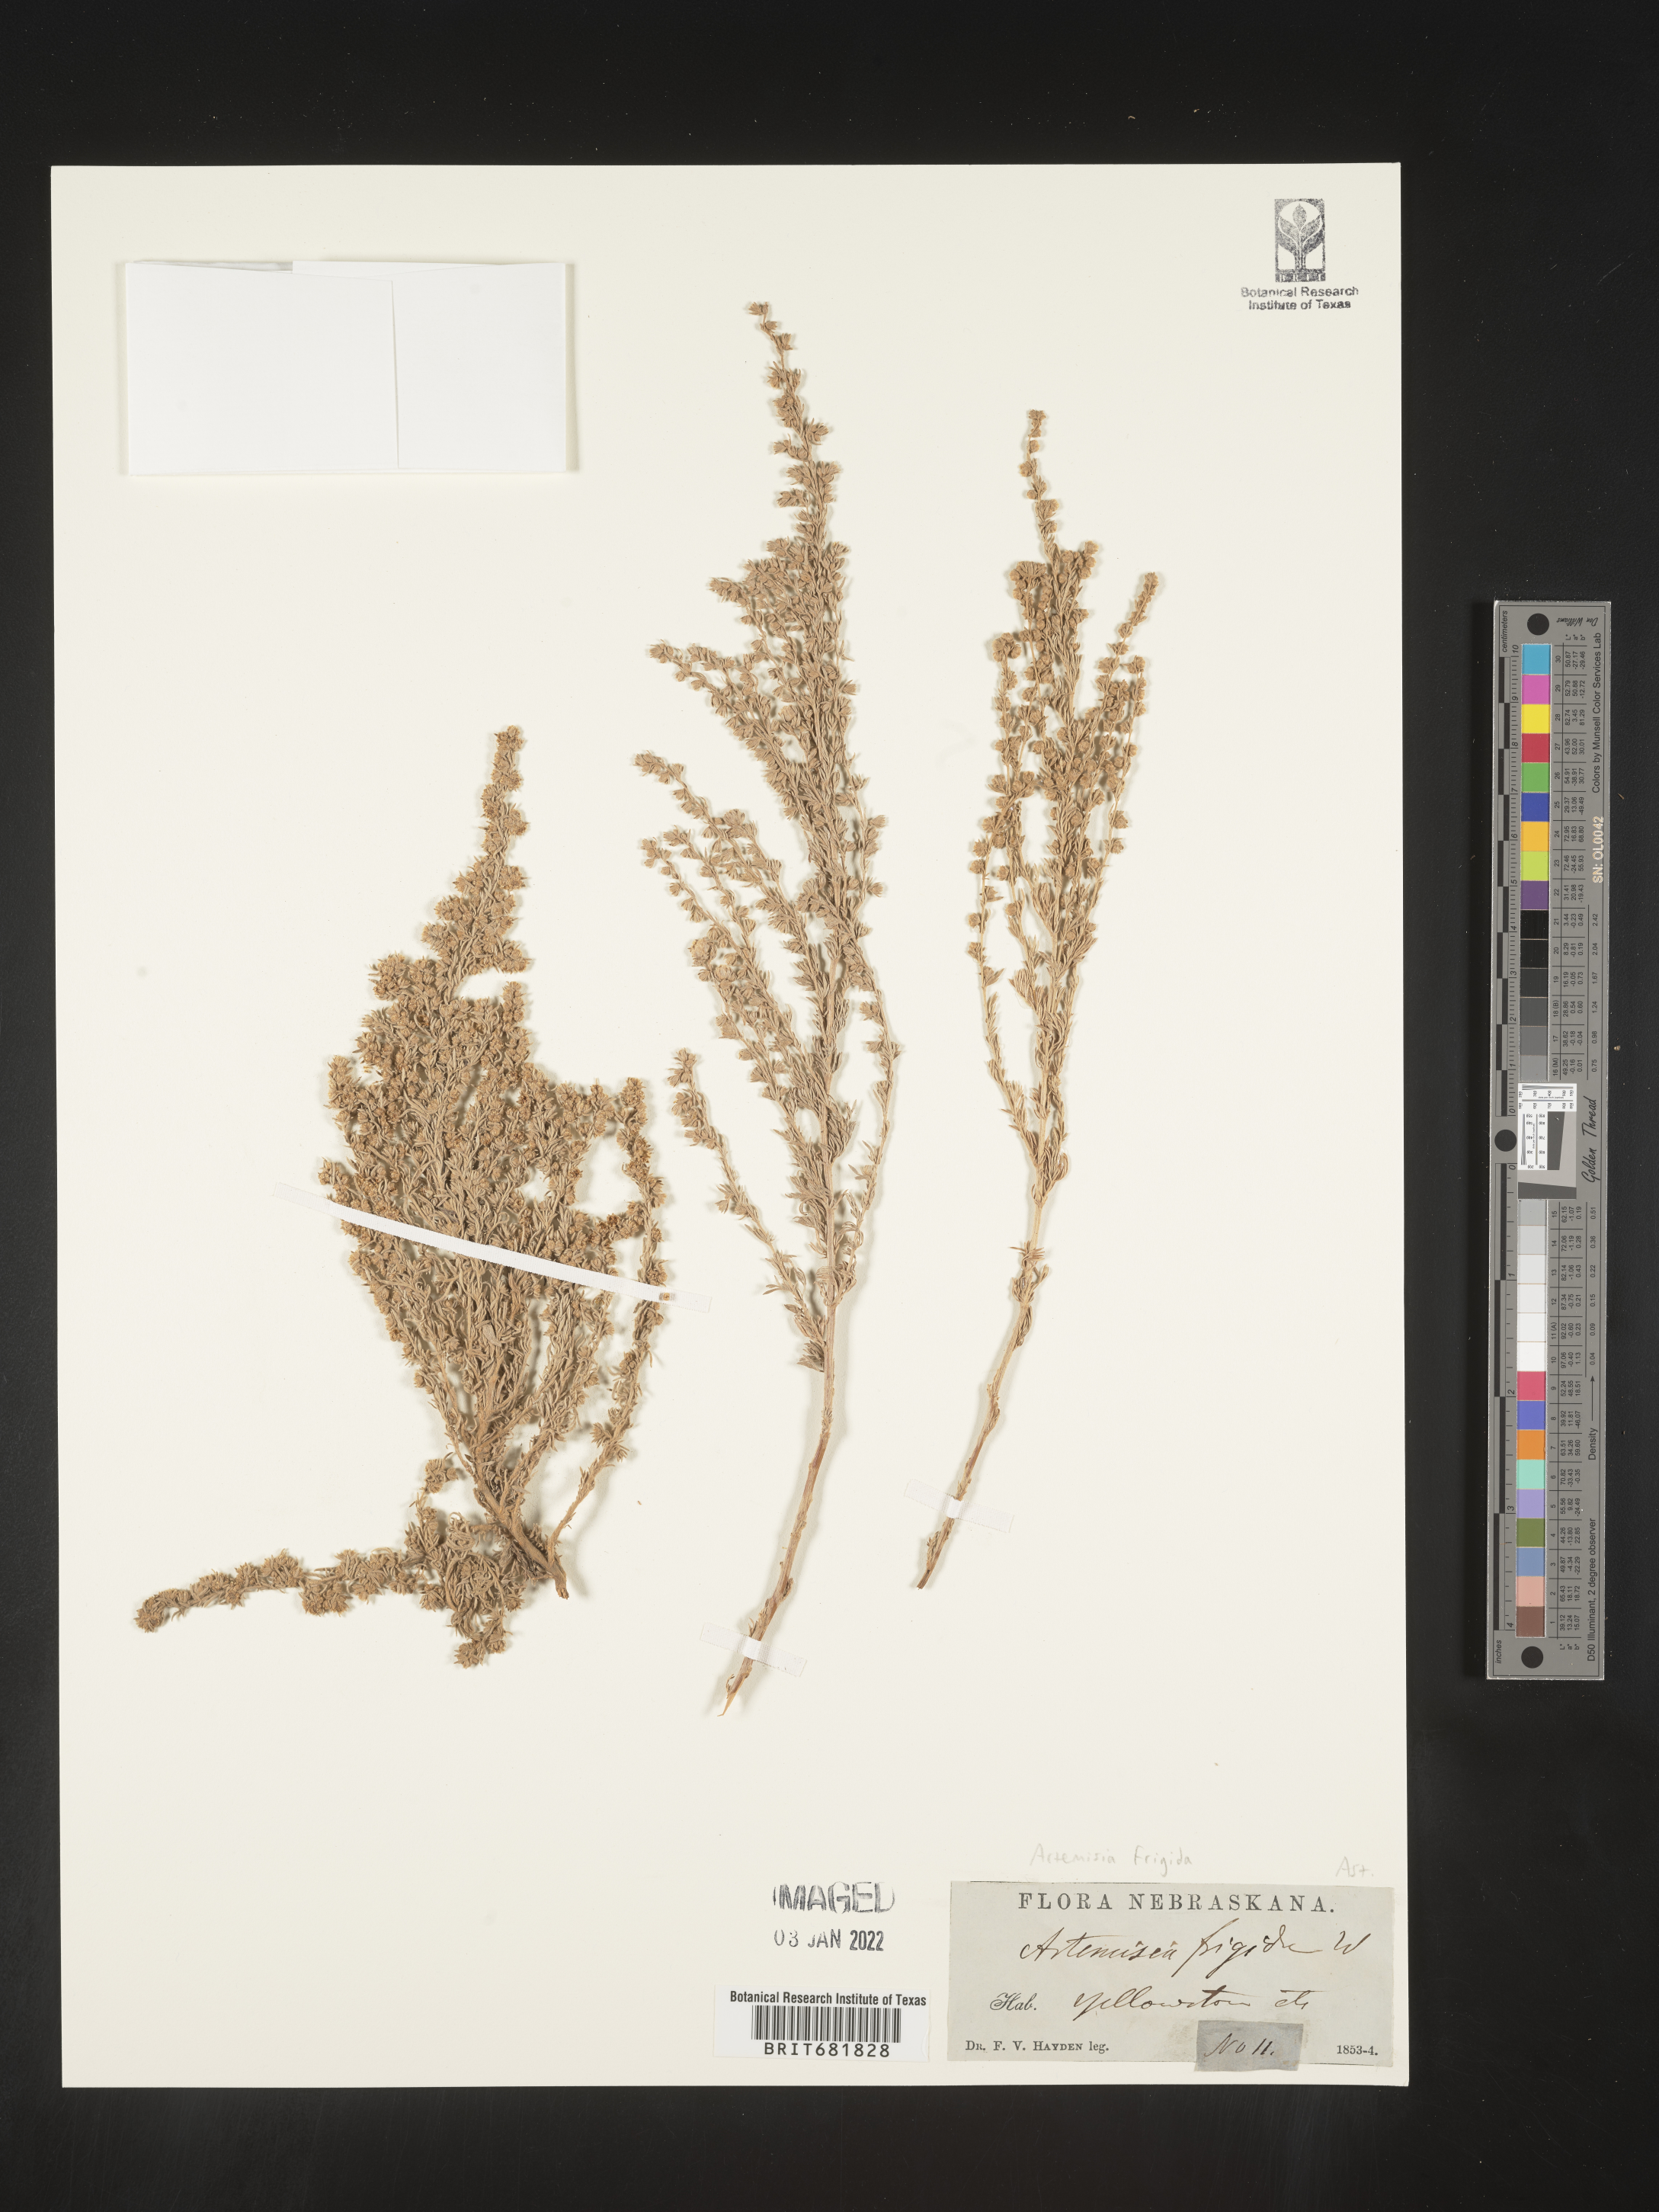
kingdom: Plantae
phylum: Tracheophyta
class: Magnoliopsida
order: Asterales
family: Asteraceae
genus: Artemisia
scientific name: Artemisia frigida
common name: Prairie sagewort
